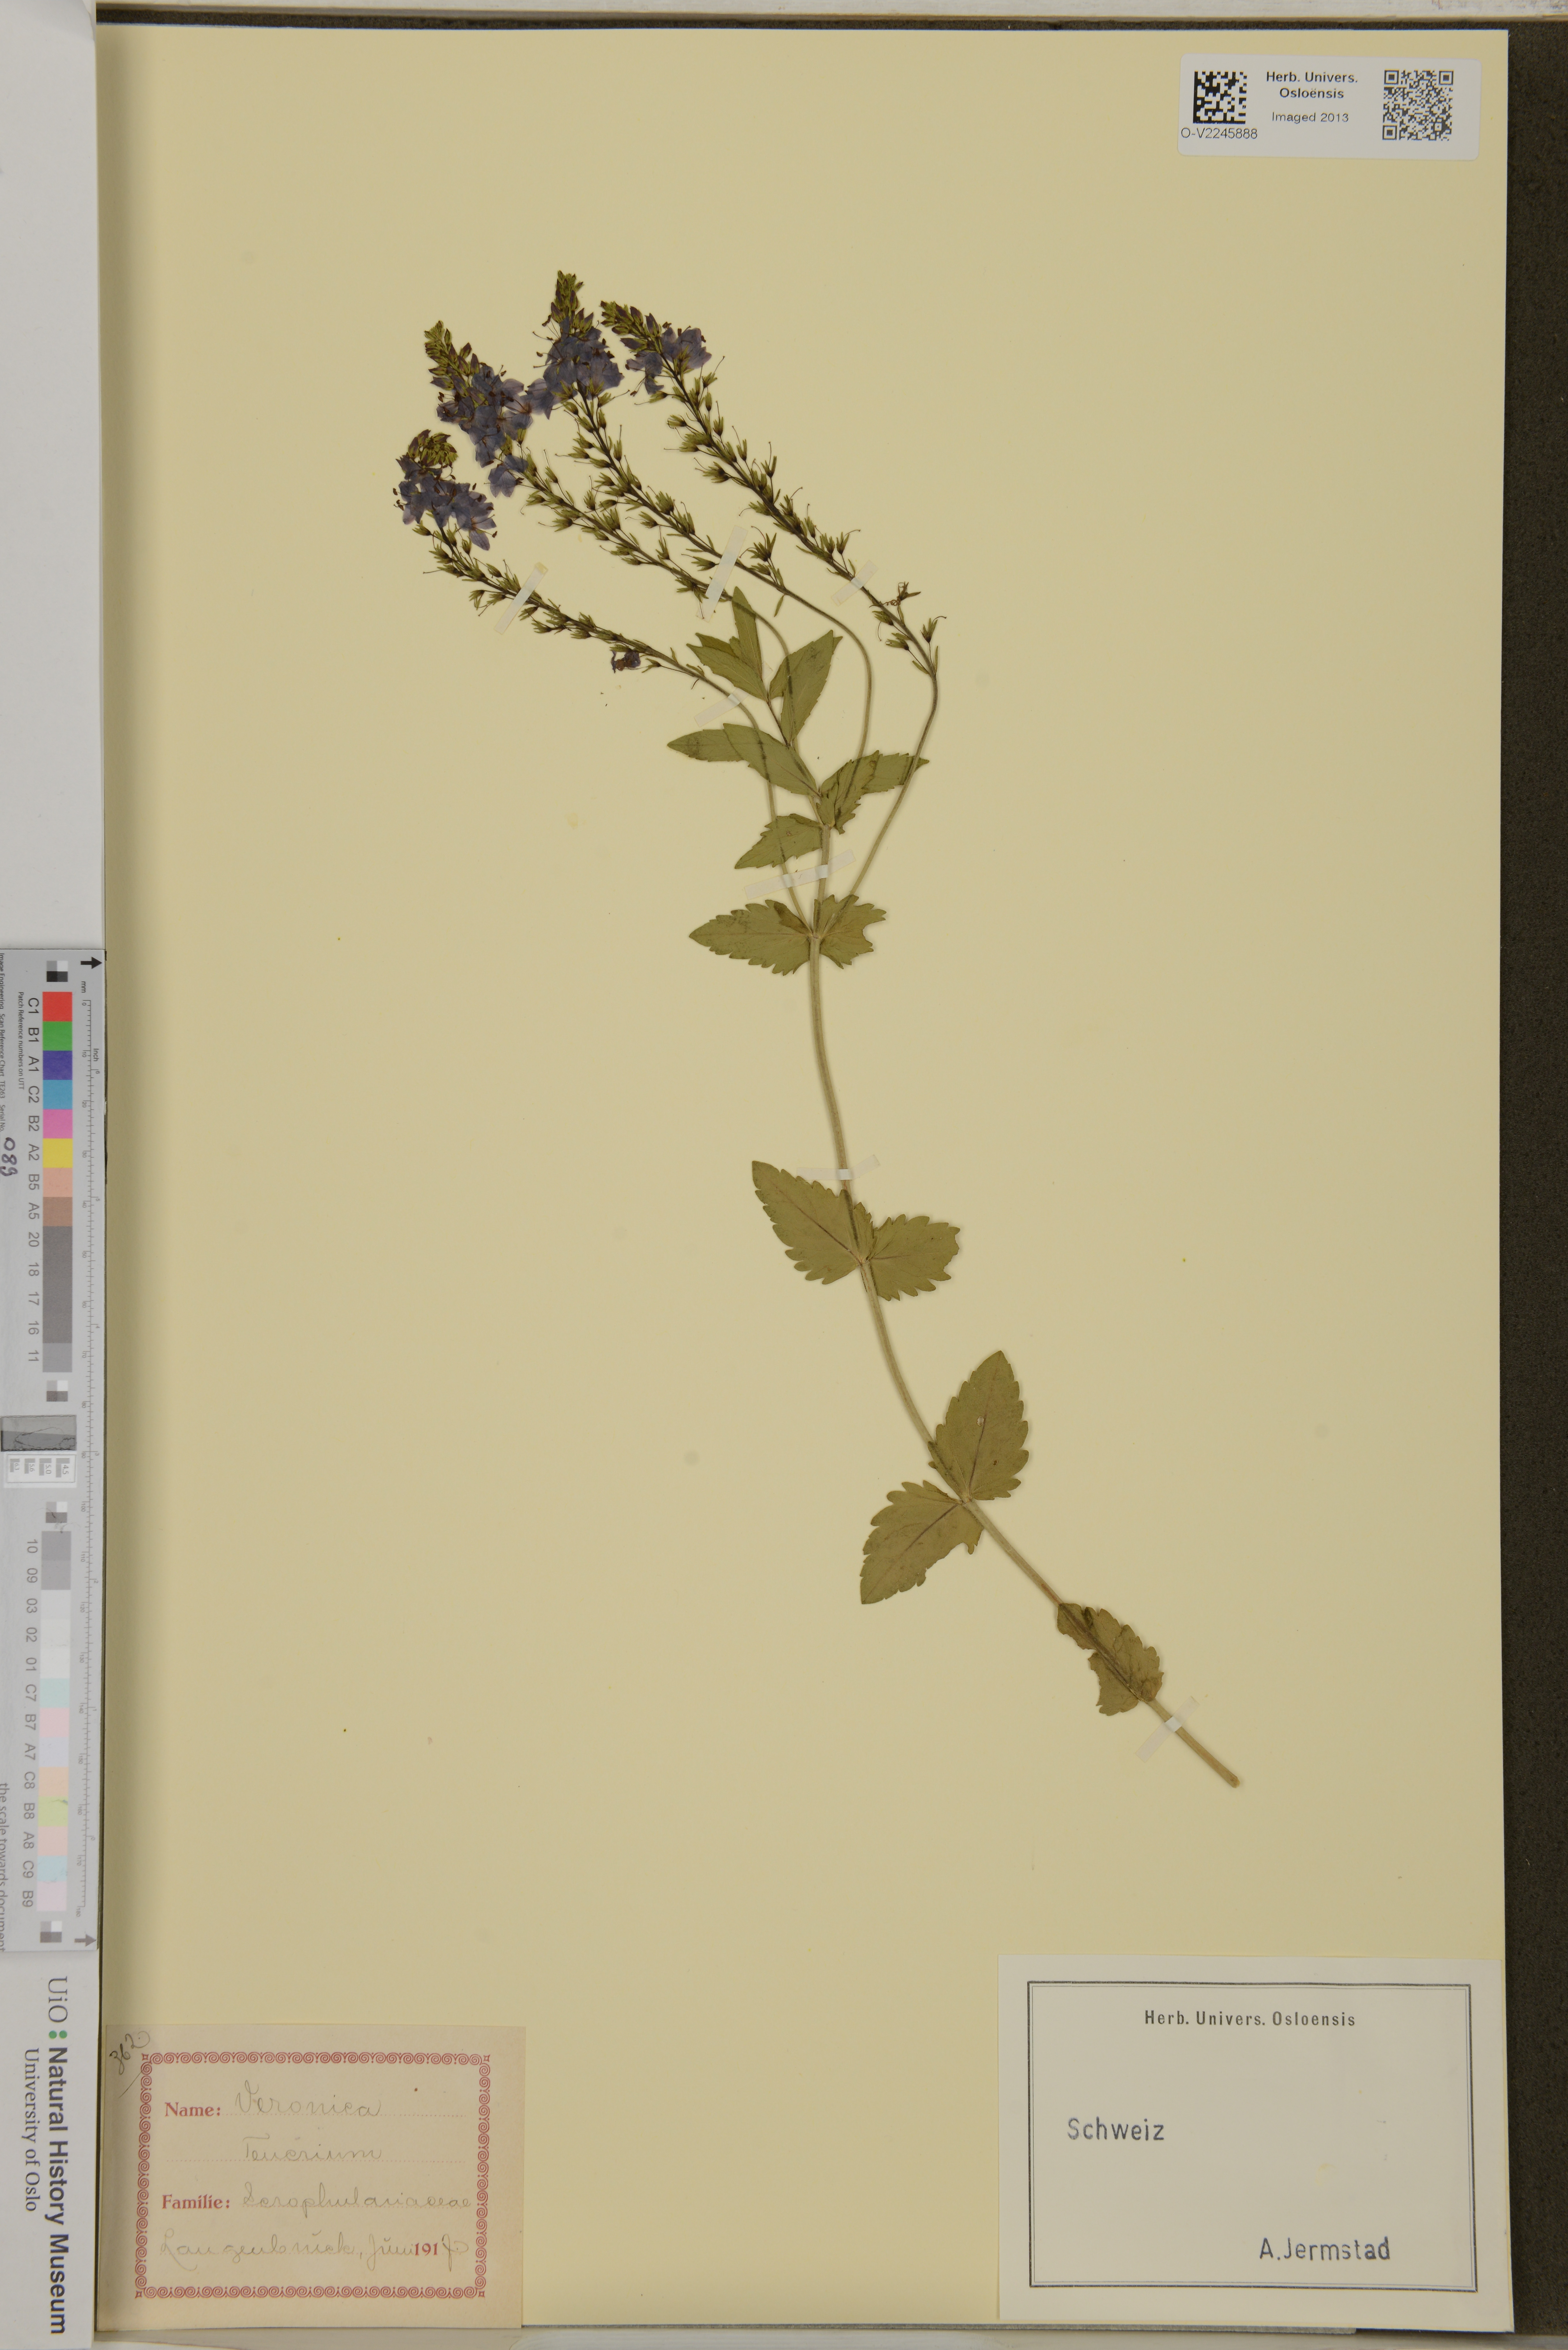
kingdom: Plantae
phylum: Tracheophyta
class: Magnoliopsida
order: Lamiales
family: Plantaginaceae
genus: Veronica
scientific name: Veronica teucrium
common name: Large speedwell
